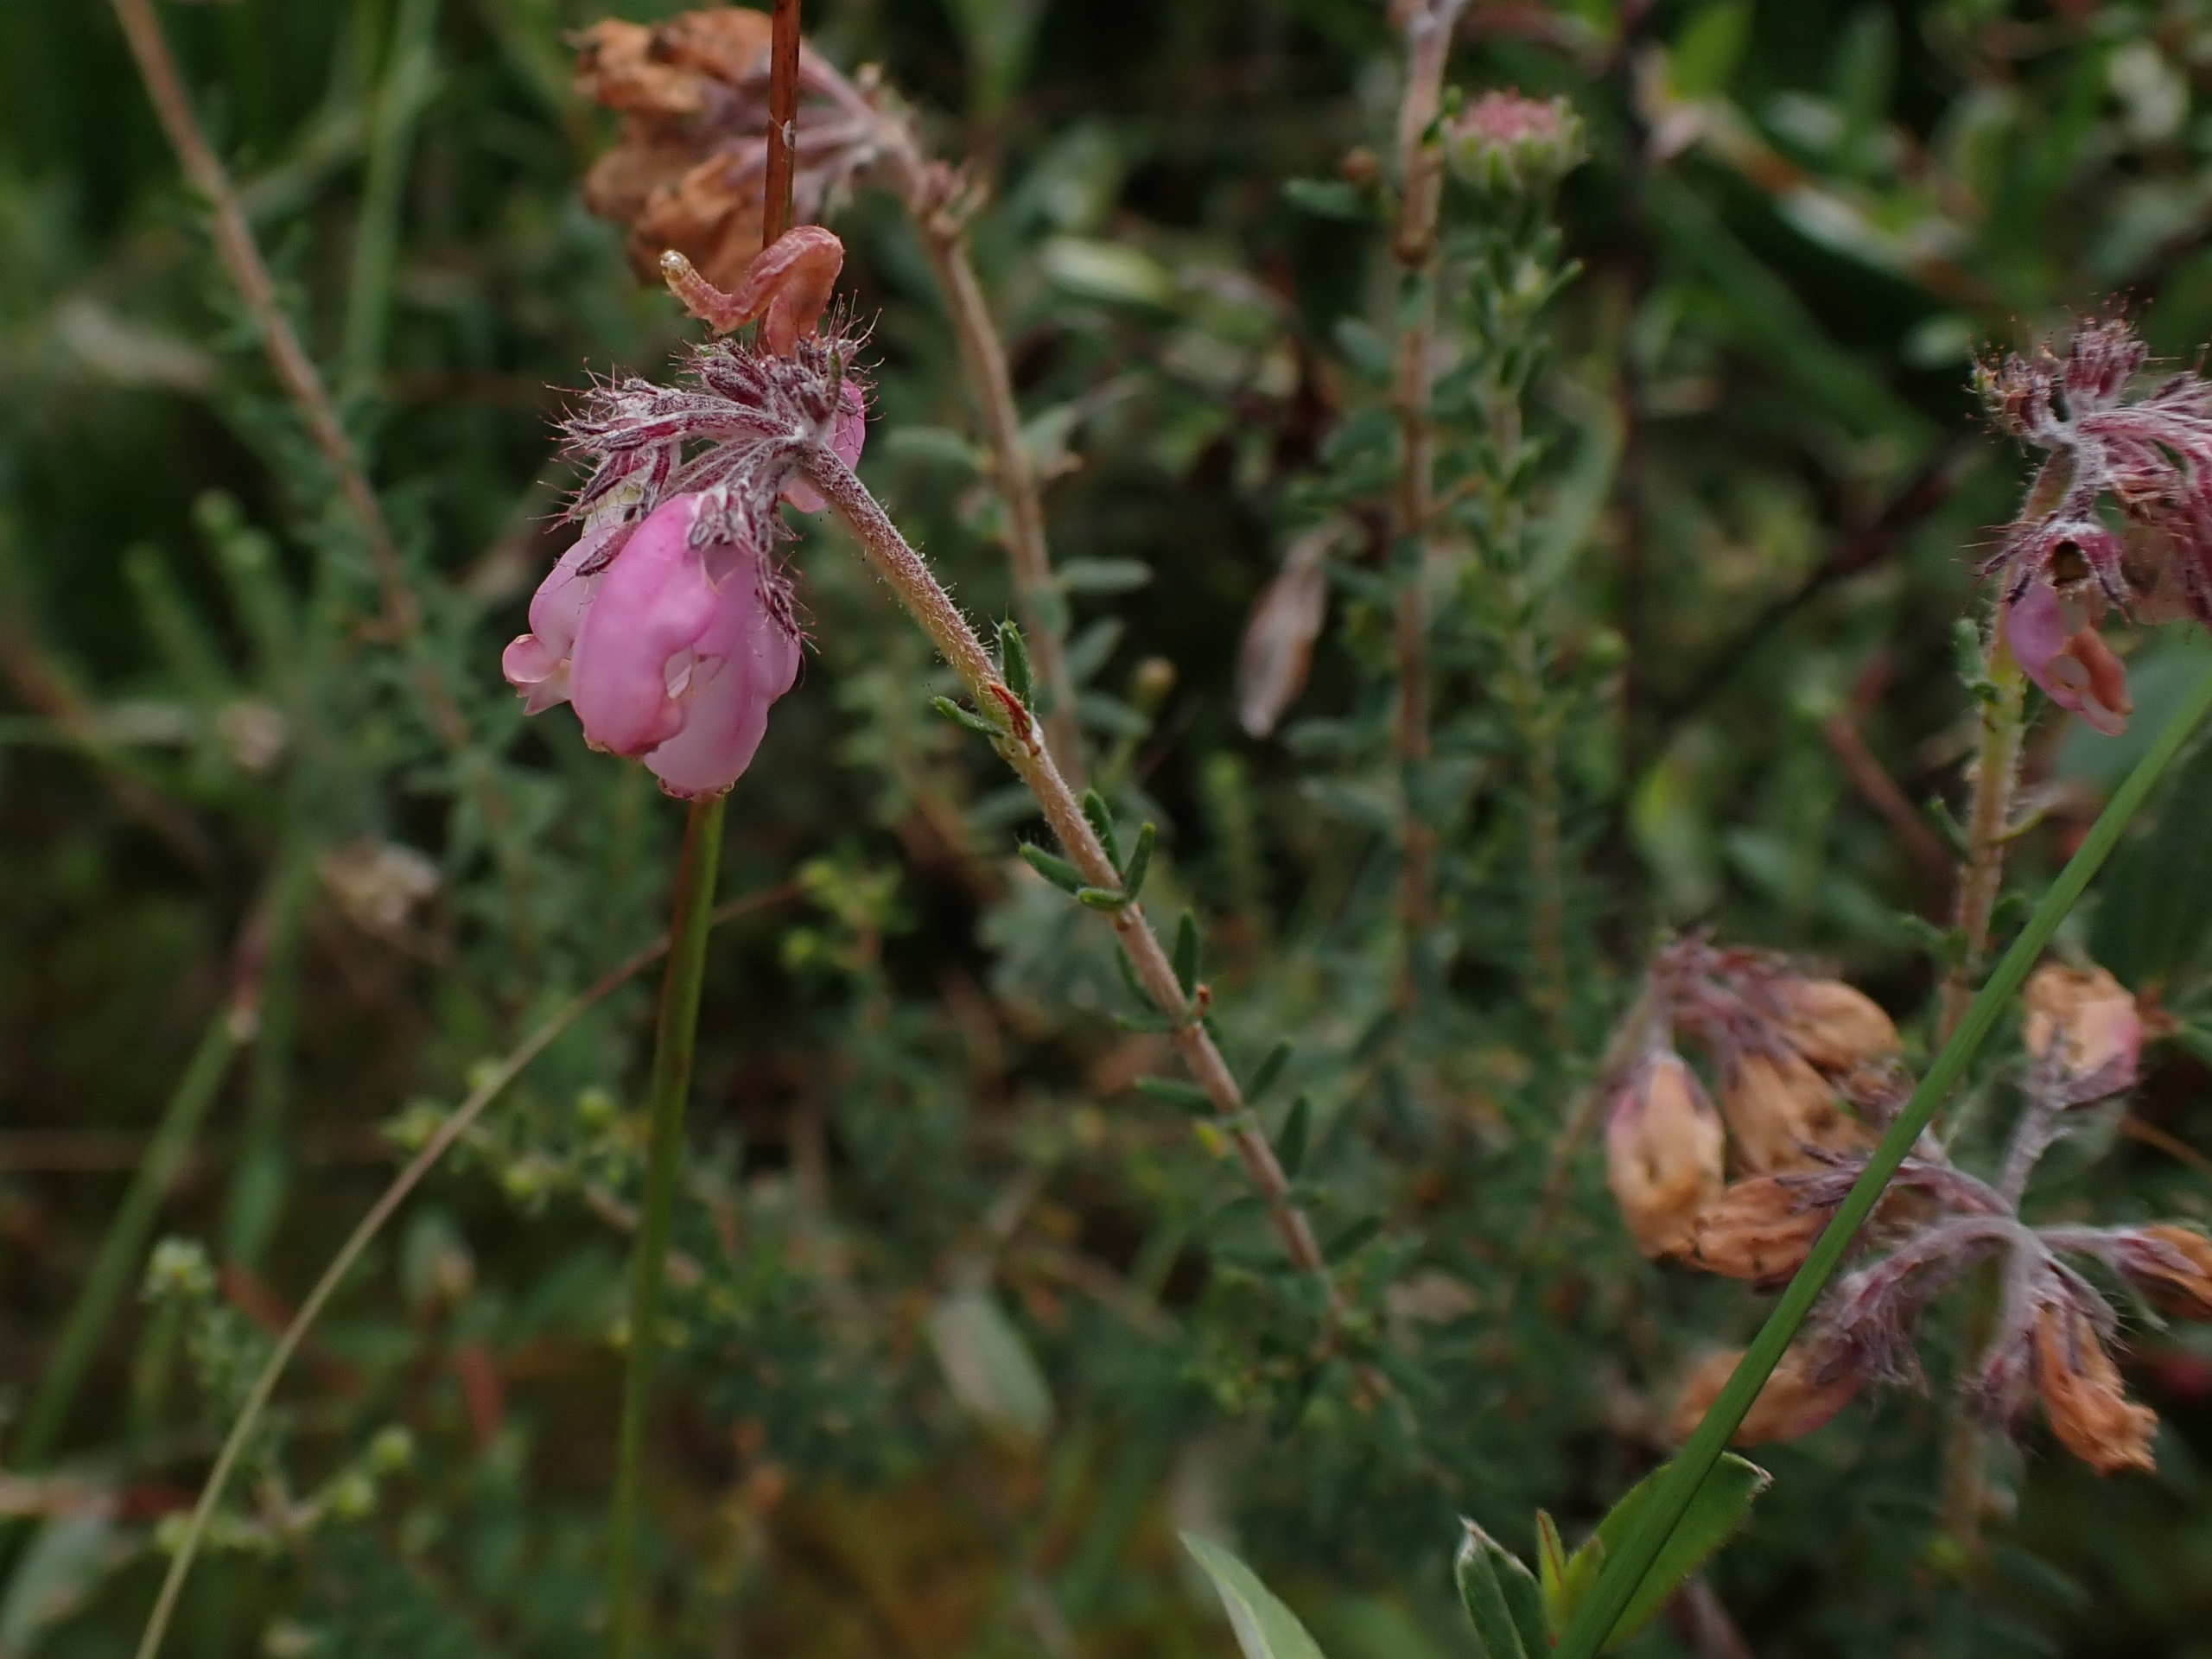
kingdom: Plantae
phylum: Tracheophyta
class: Magnoliopsida
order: Ericales
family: Ericaceae
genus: Erica
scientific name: Erica tetralix
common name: Klokkelyng
